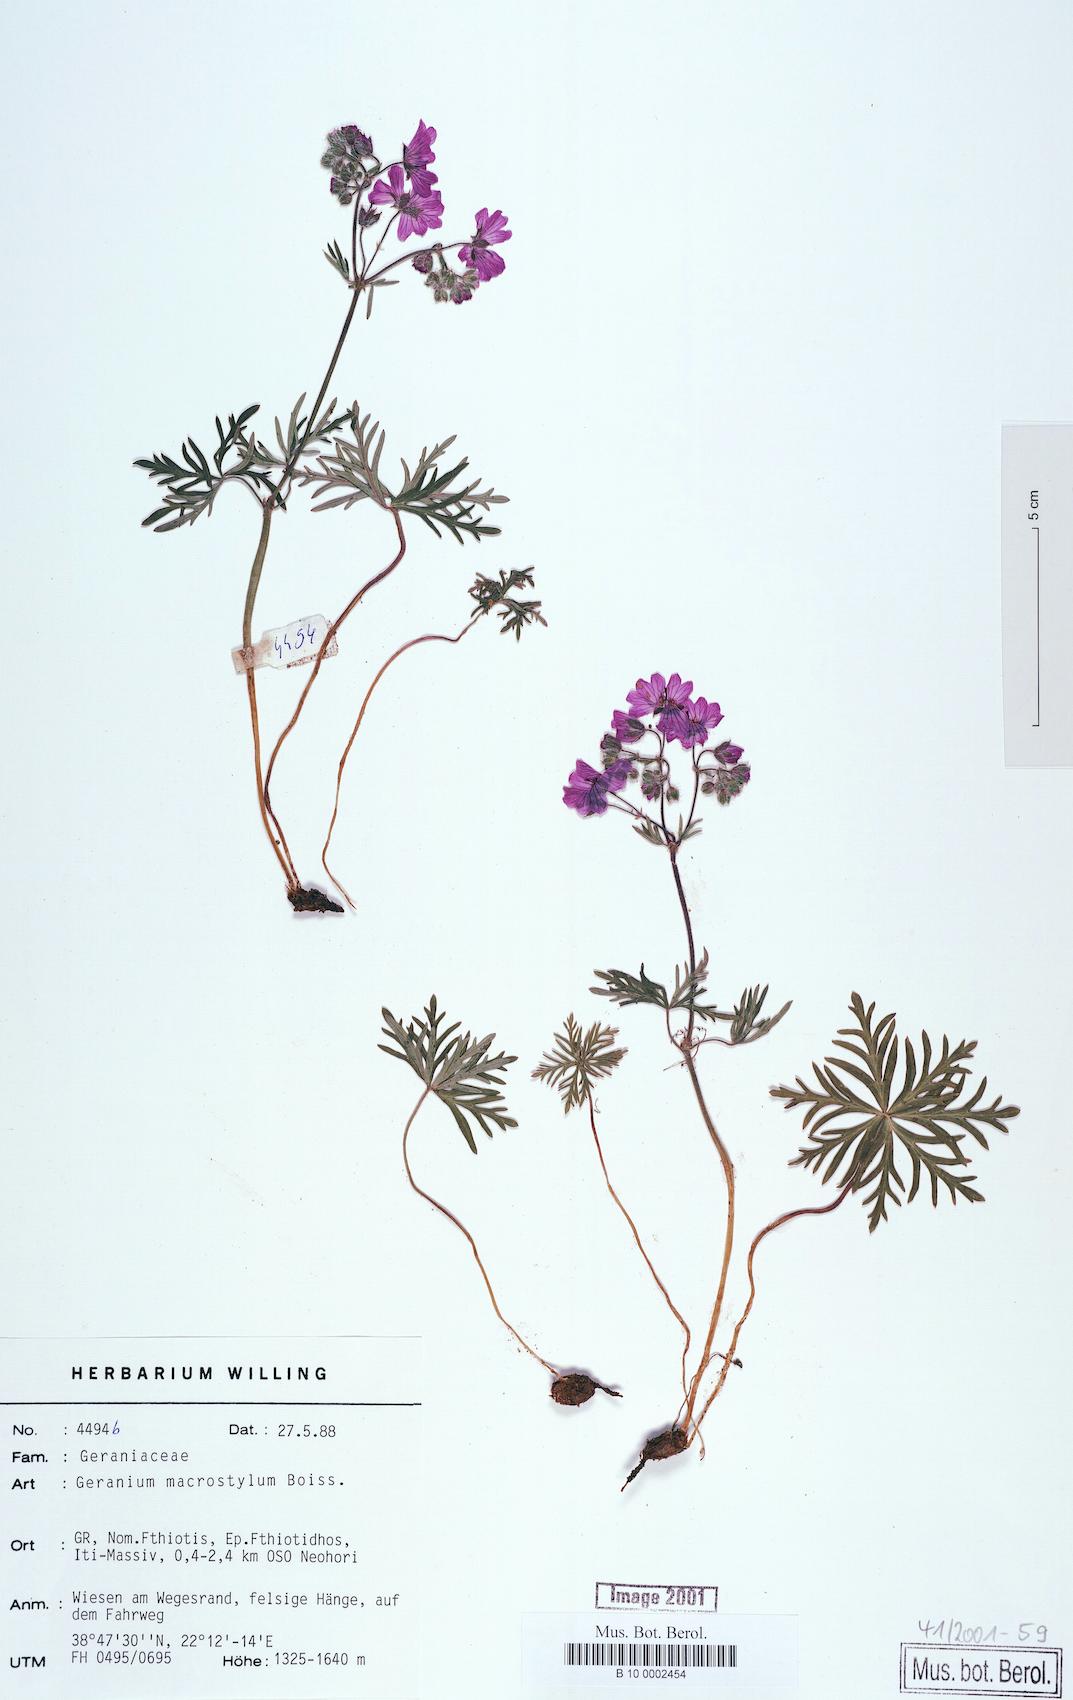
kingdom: Plantae
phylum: Tracheophyta
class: Magnoliopsida
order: Geraniales
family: Geraniaceae
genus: Geranium
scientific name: Geranium macrostylum
